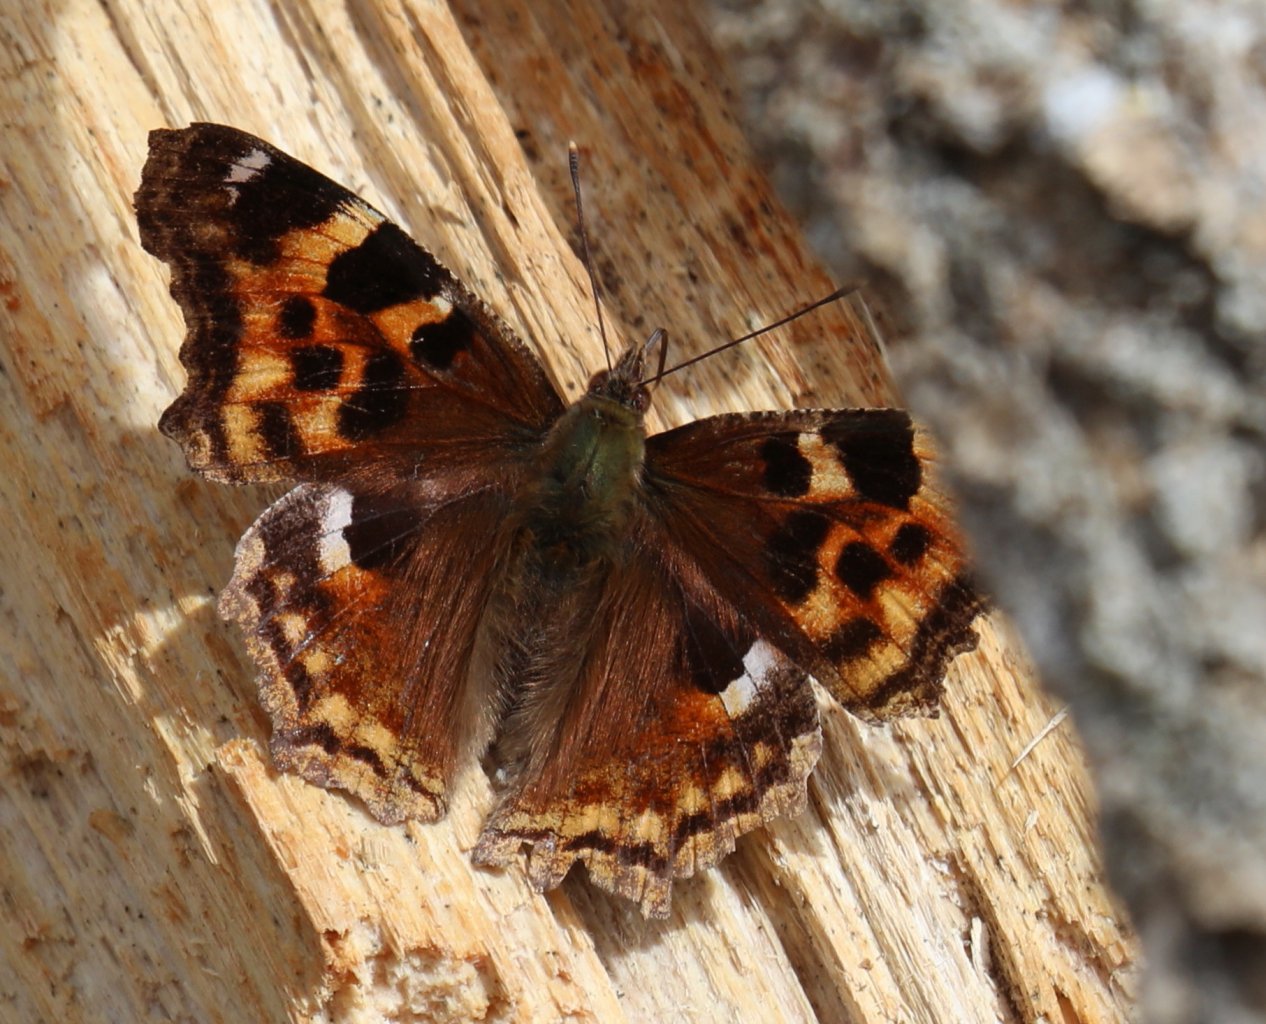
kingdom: Animalia
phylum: Arthropoda
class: Insecta
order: Lepidoptera
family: Nymphalidae
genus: Polygonia
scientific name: Polygonia vaualbum
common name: Compton Tortoiseshell
